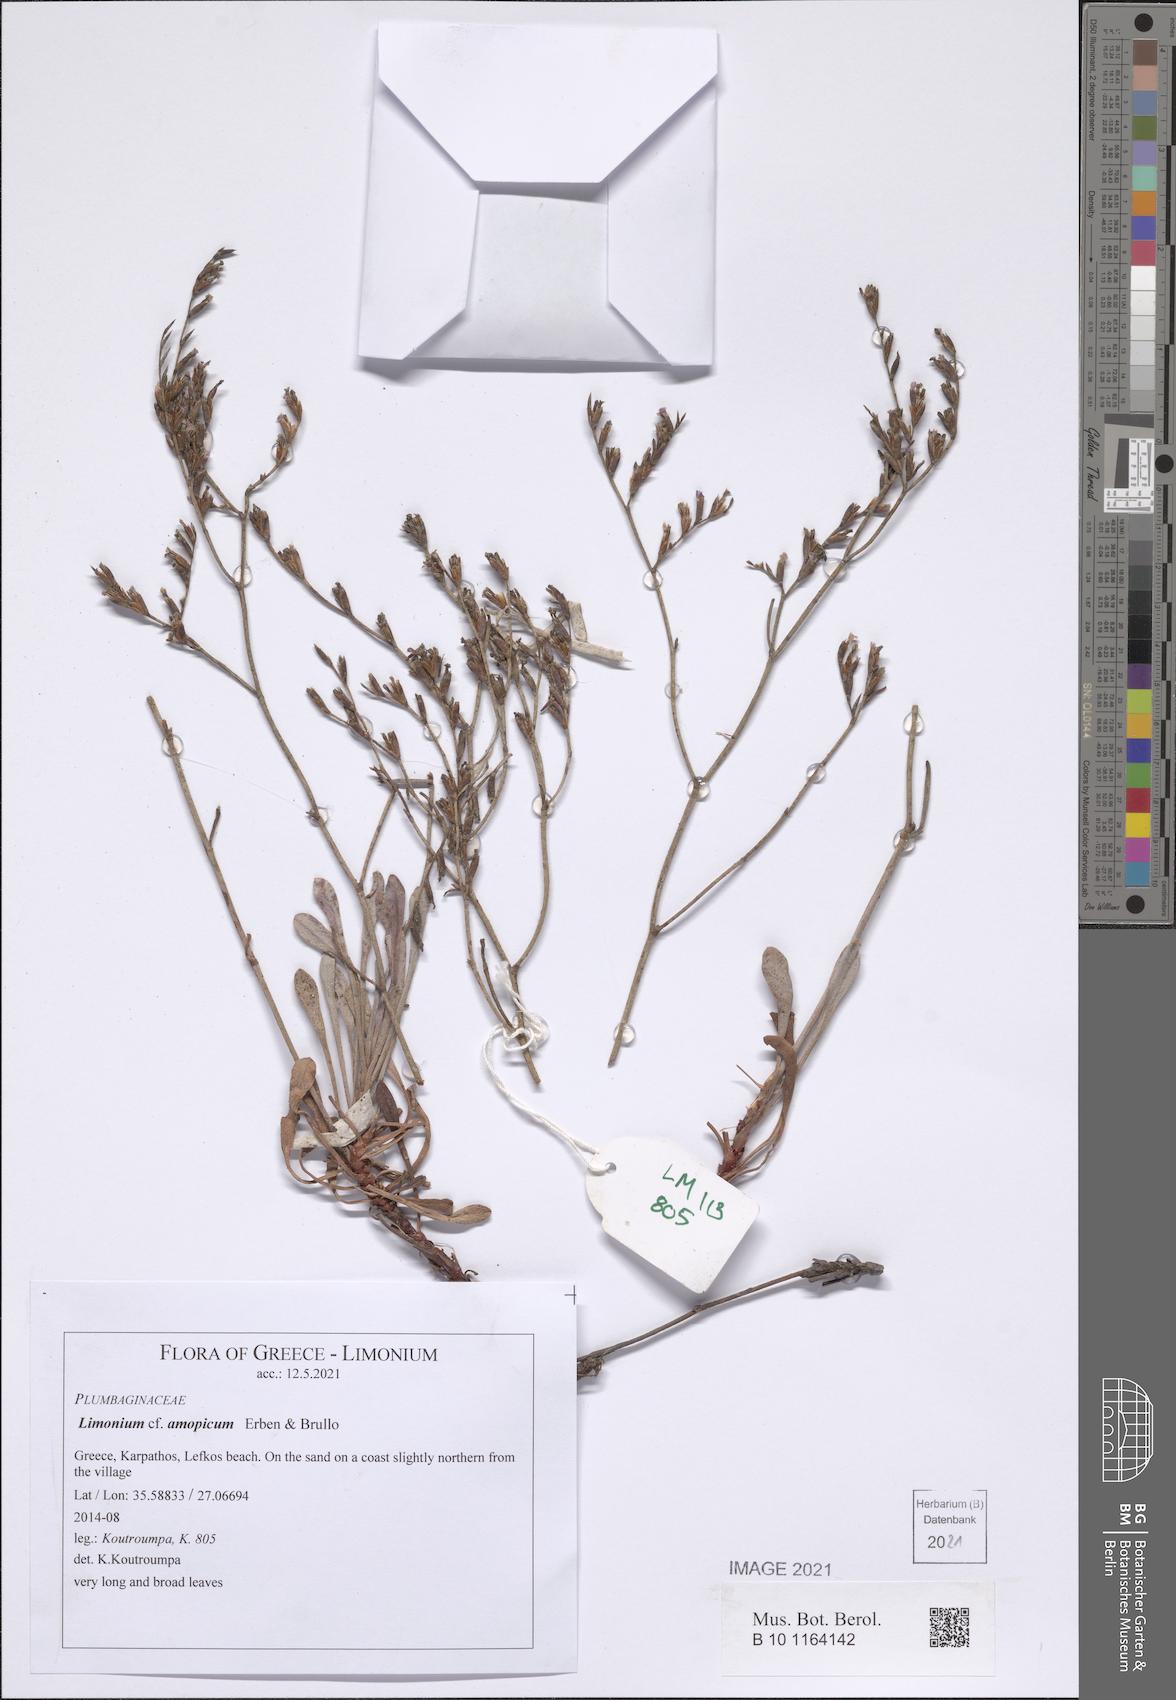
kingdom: Plantae
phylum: Tracheophyta
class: Magnoliopsida
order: Caryophyllales
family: Plumbaginaceae
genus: Limonium
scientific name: Limonium amopicum
